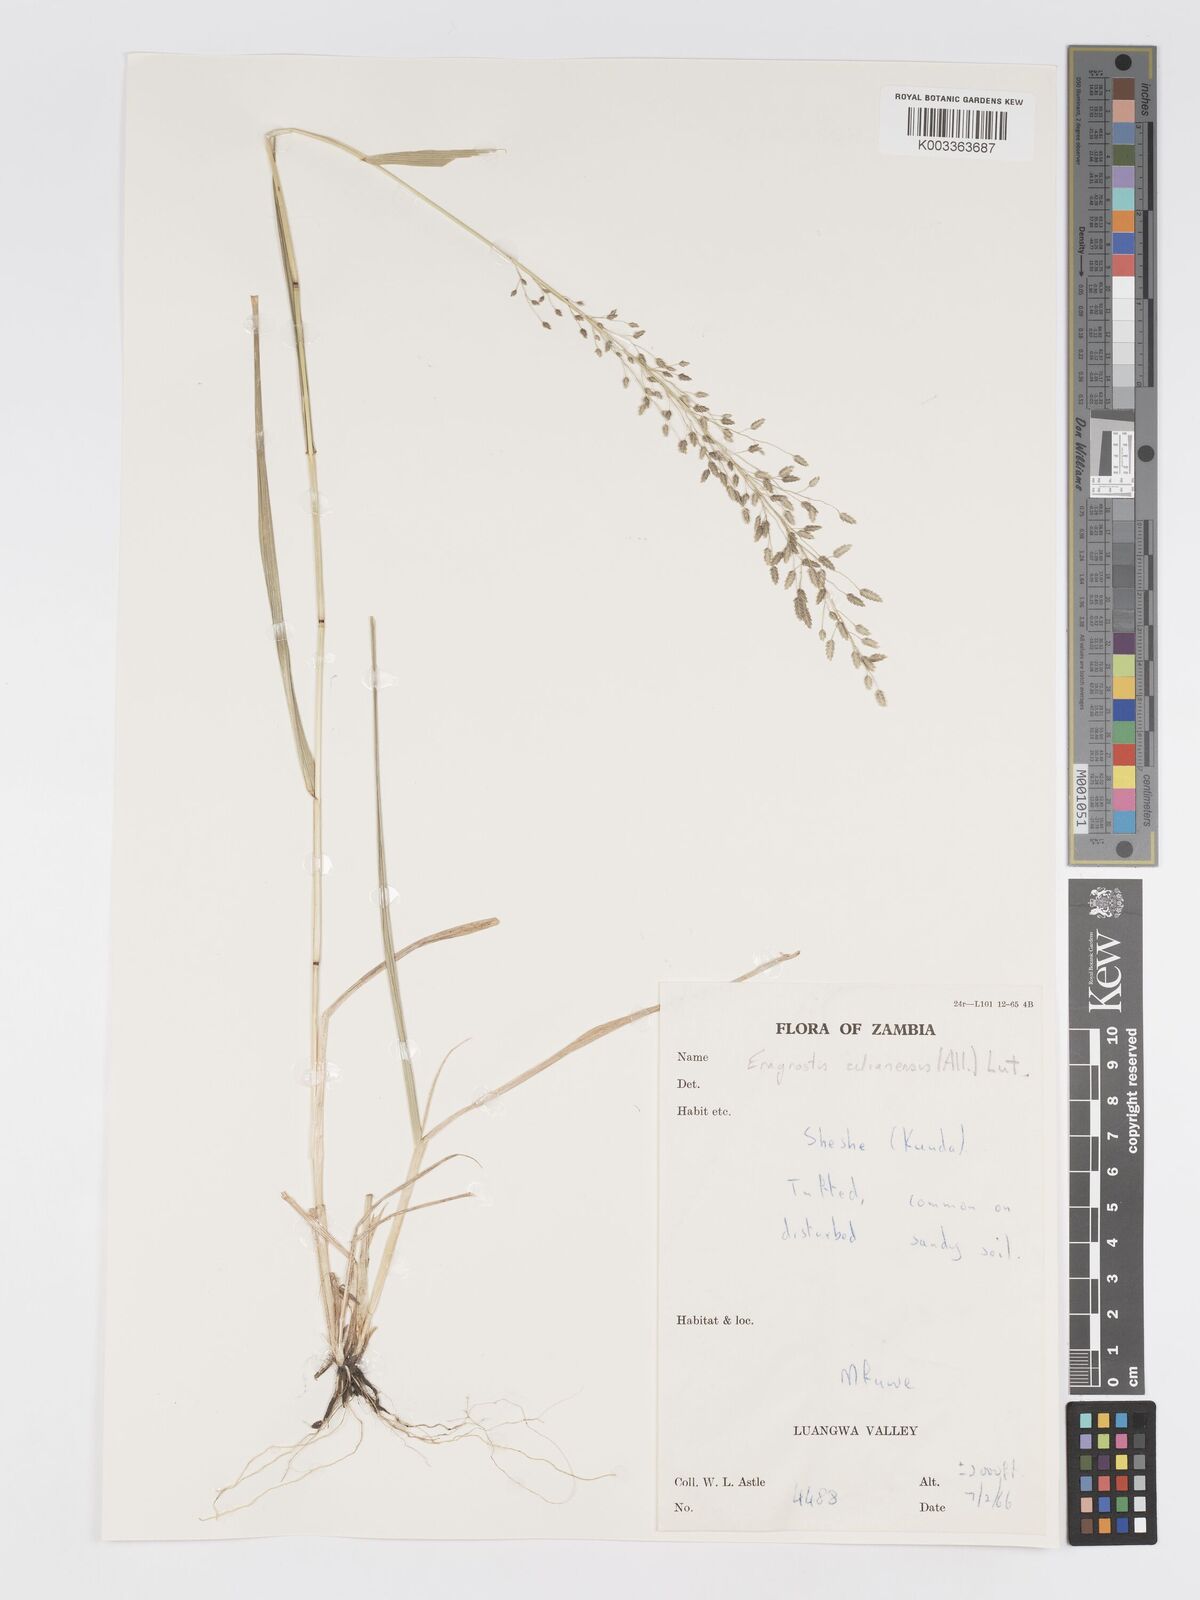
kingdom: Plantae
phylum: Tracheophyta
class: Liliopsida
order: Poales
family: Poaceae
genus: Eragrostis
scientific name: Eragrostis cilianensis
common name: Stinkgrass
